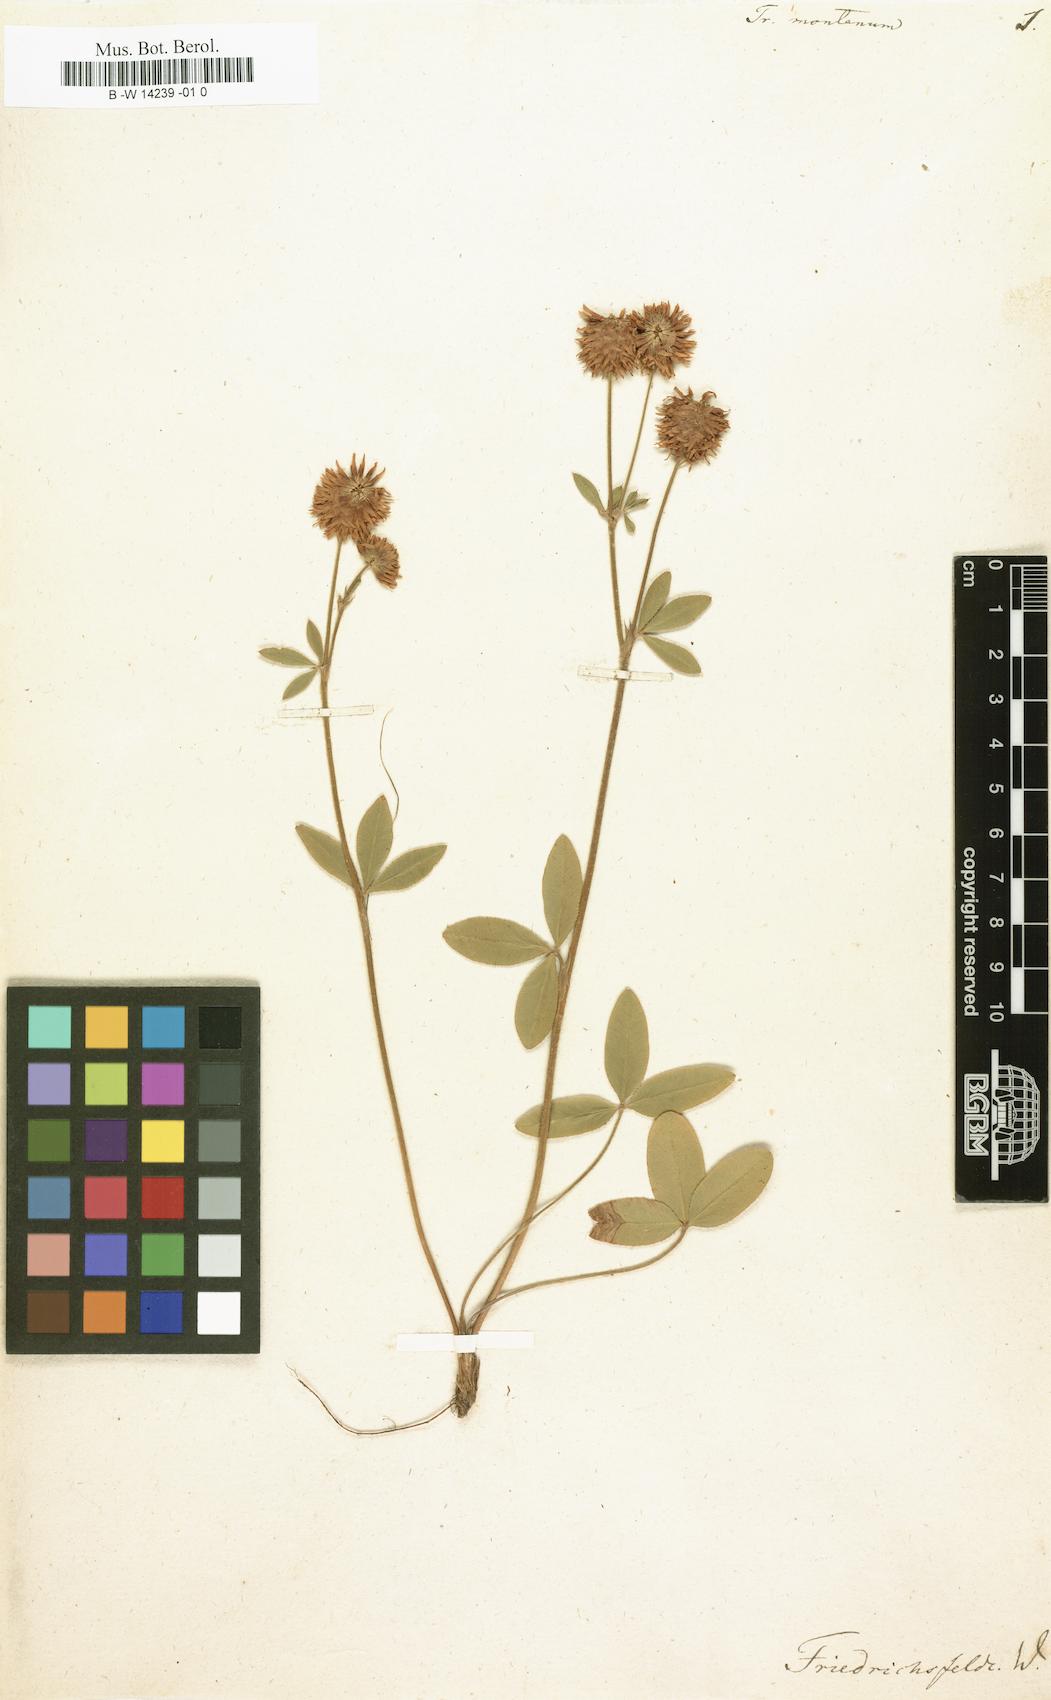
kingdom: Plantae
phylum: Tracheophyta
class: Magnoliopsida
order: Fabales
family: Fabaceae
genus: Trifolium
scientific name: Trifolium montanum
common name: Mountain clover
